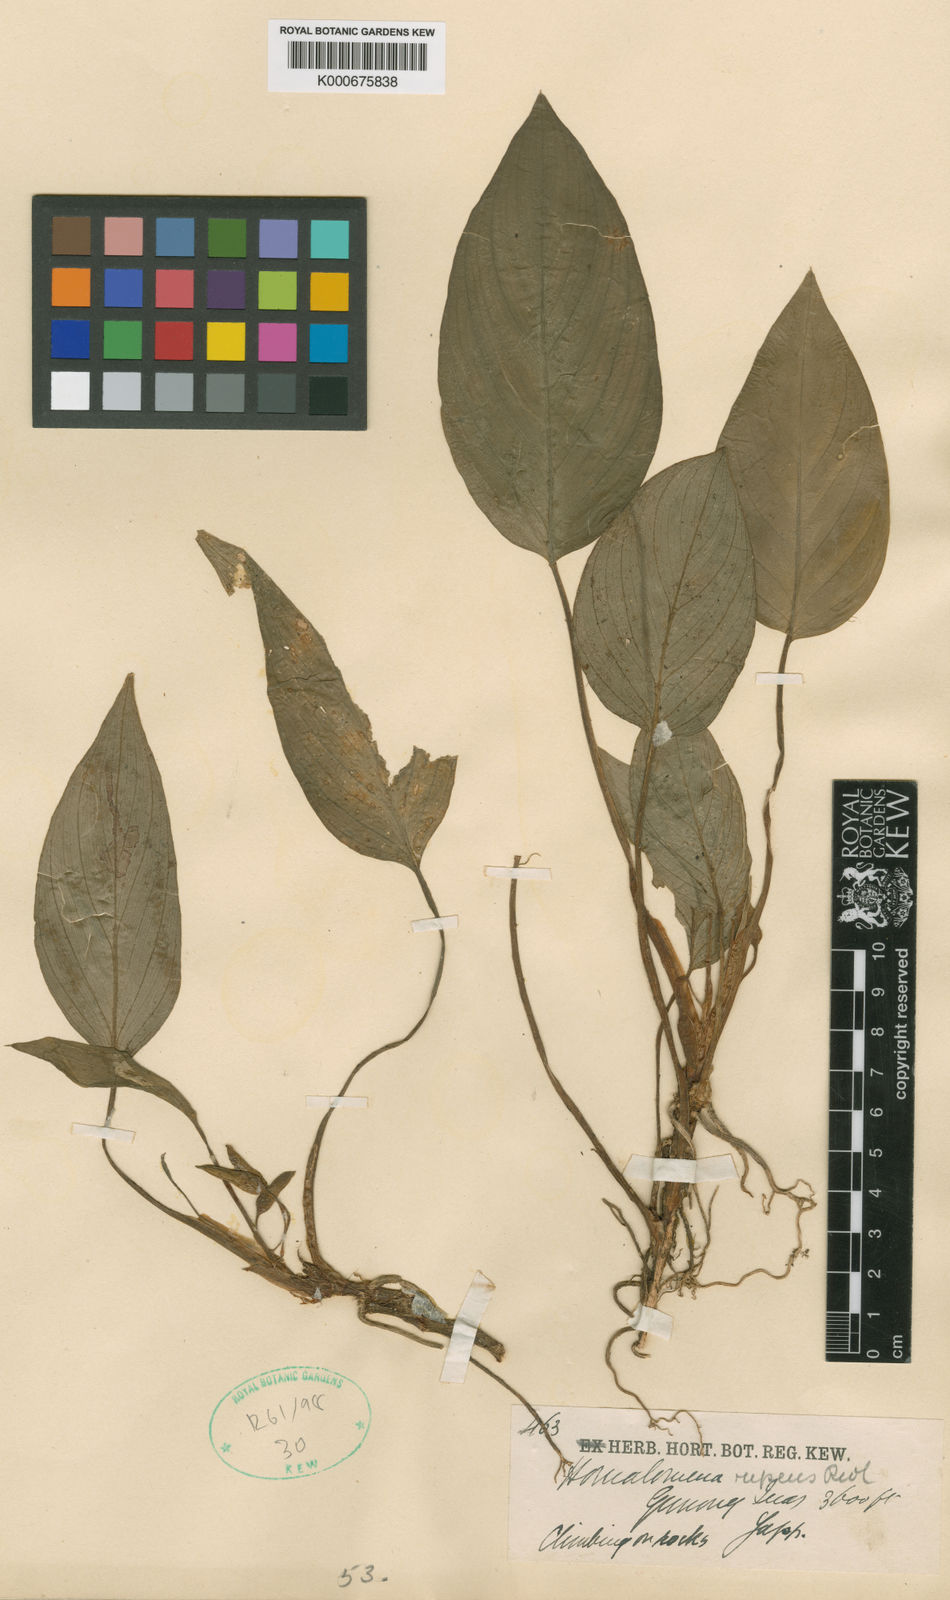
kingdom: Plantae
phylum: Tracheophyta
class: Liliopsida
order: Alismatales
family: Araceae
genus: Homalomena
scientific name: Homalomena humilis
